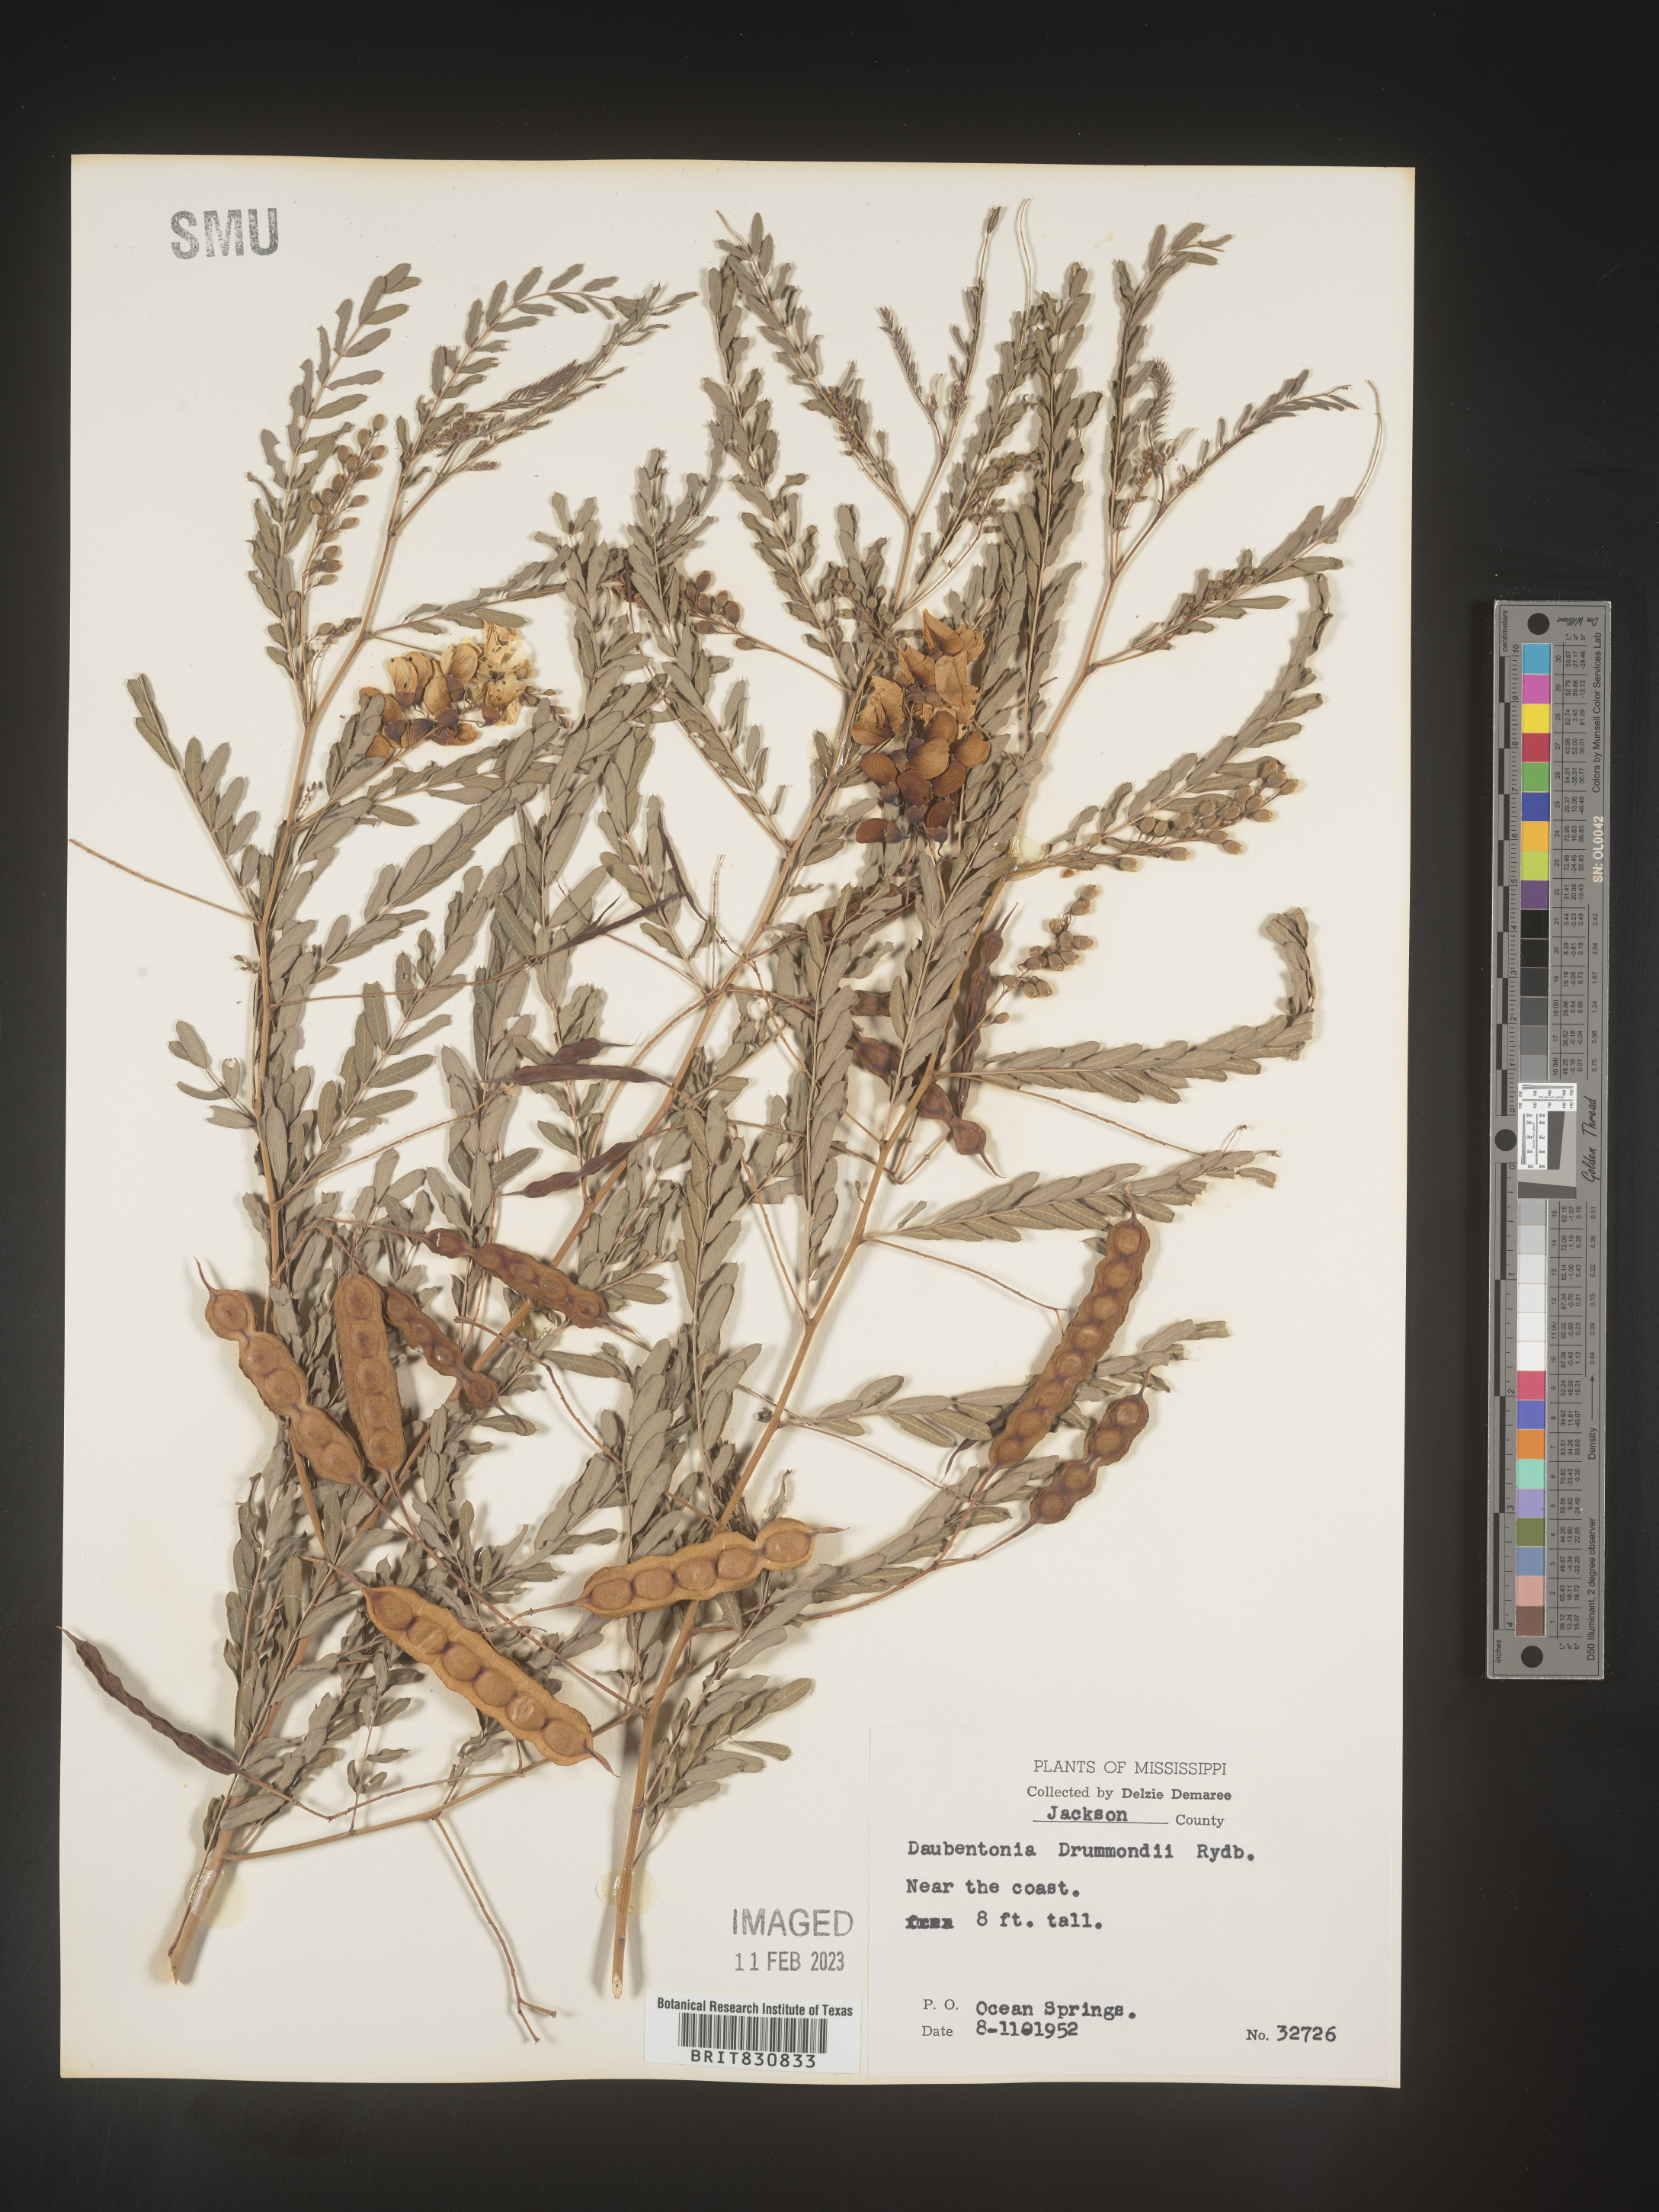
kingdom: Plantae
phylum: Tracheophyta
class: Magnoliopsida
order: Fabales
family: Fabaceae
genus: Sesbania
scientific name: Sesbania drummondii
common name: Poison-bean
